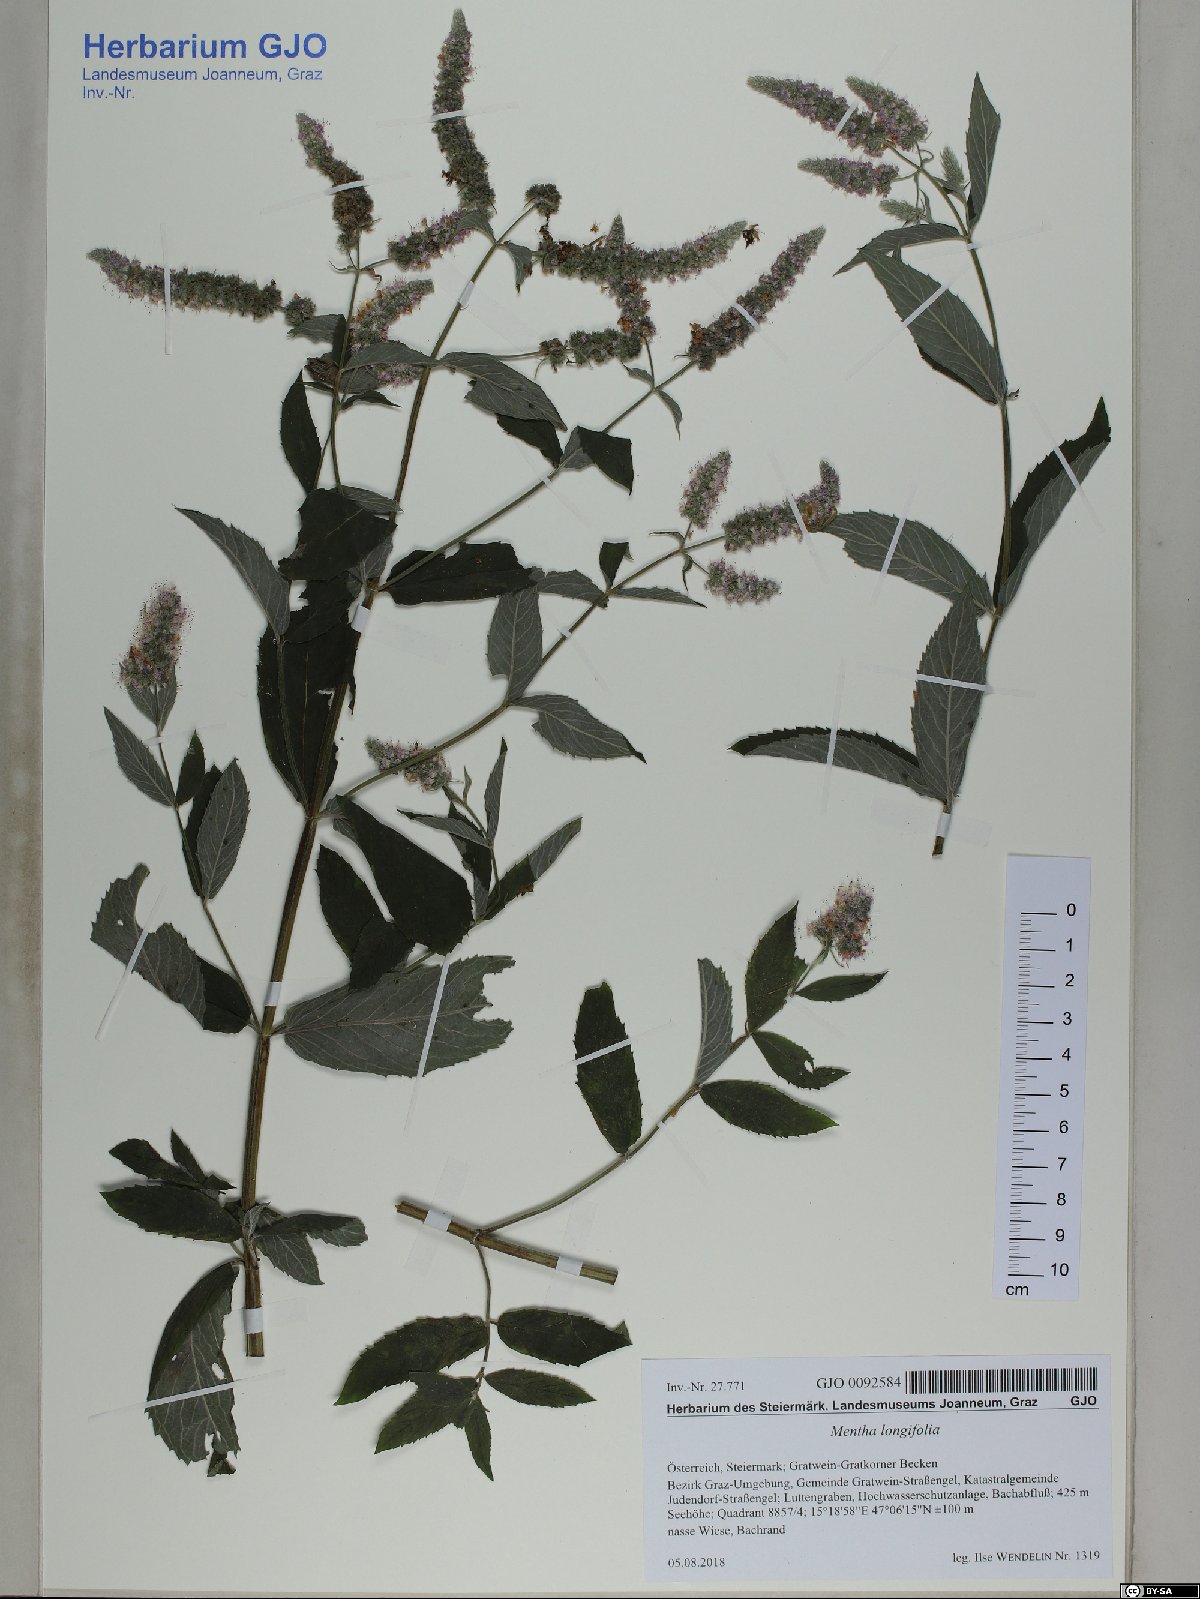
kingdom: Plantae
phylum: Tracheophyta
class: Magnoliopsida
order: Lamiales
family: Lamiaceae
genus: Mentha
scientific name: Mentha longifolia
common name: Horse mint
